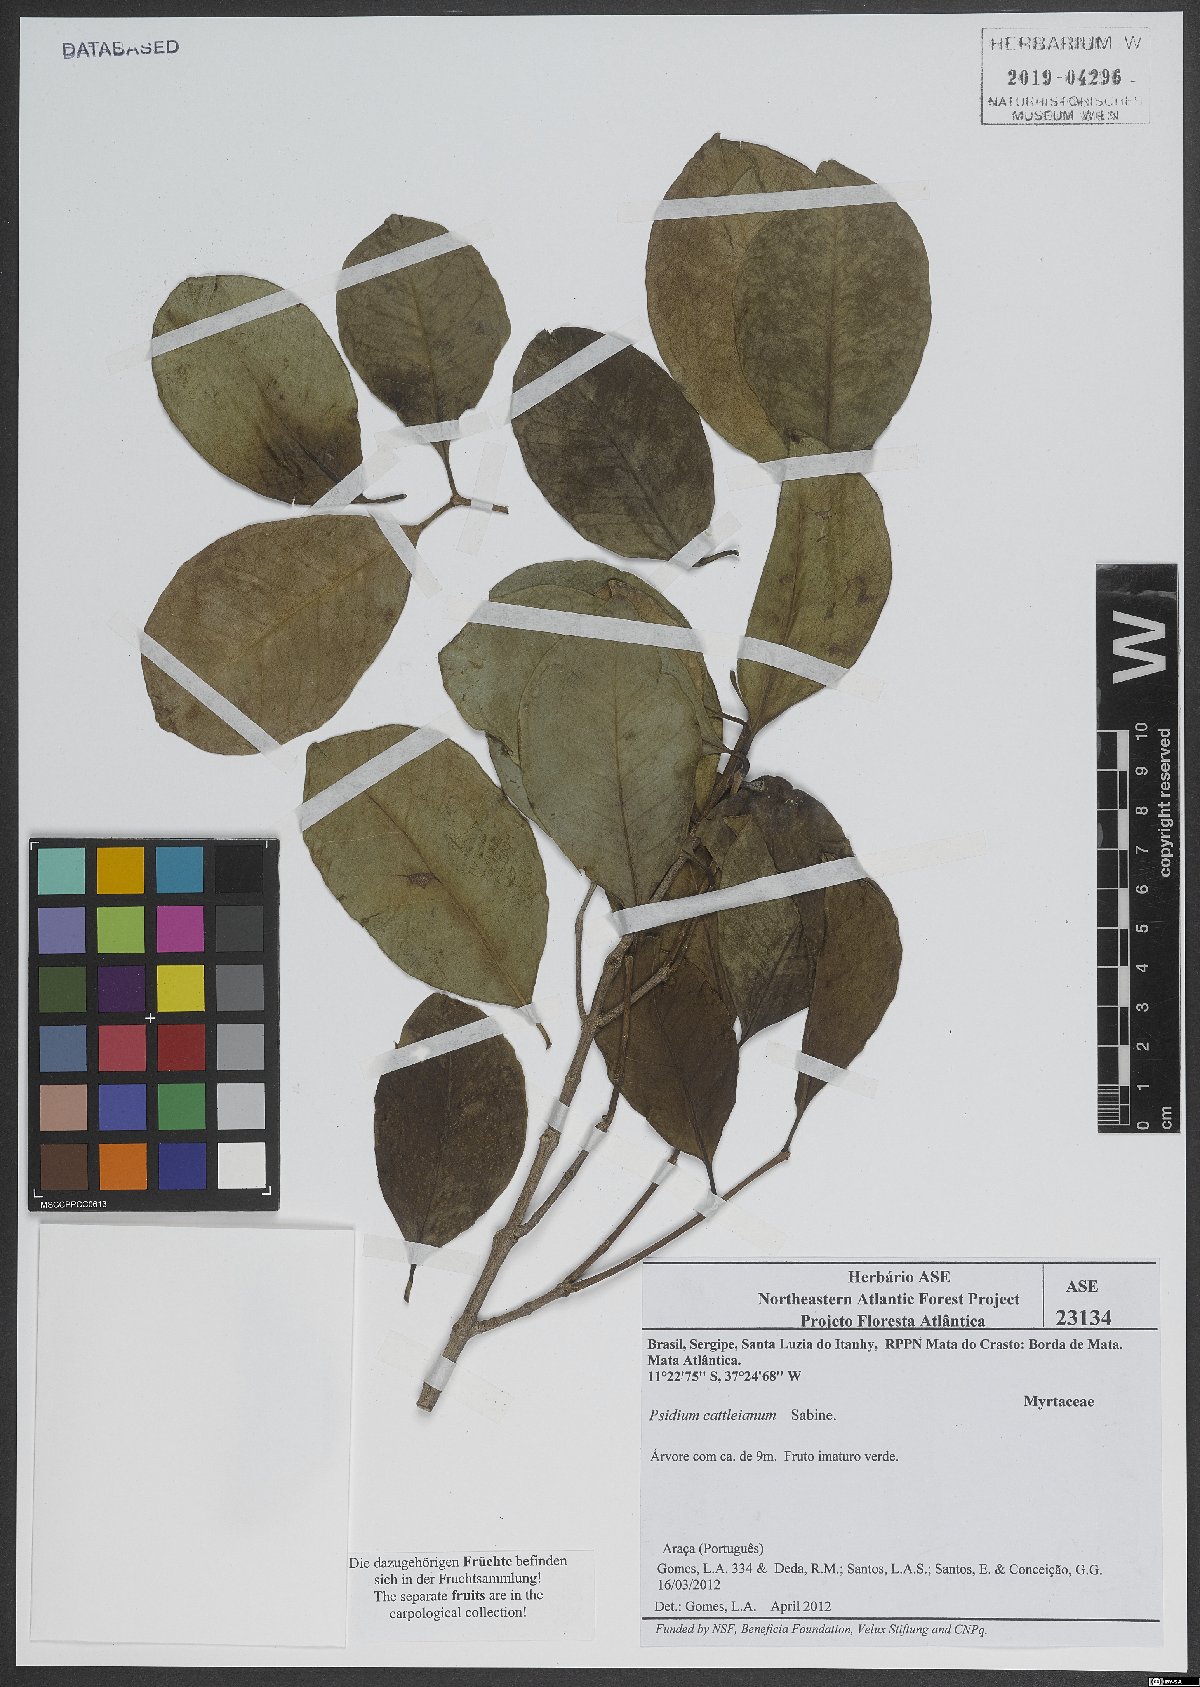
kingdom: Plantae
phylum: Tracheophyta
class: Magnoliopsida
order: Myrtales
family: Myrtaceae
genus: Psidium
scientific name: Psidium cattleianum
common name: Strawberry guava
